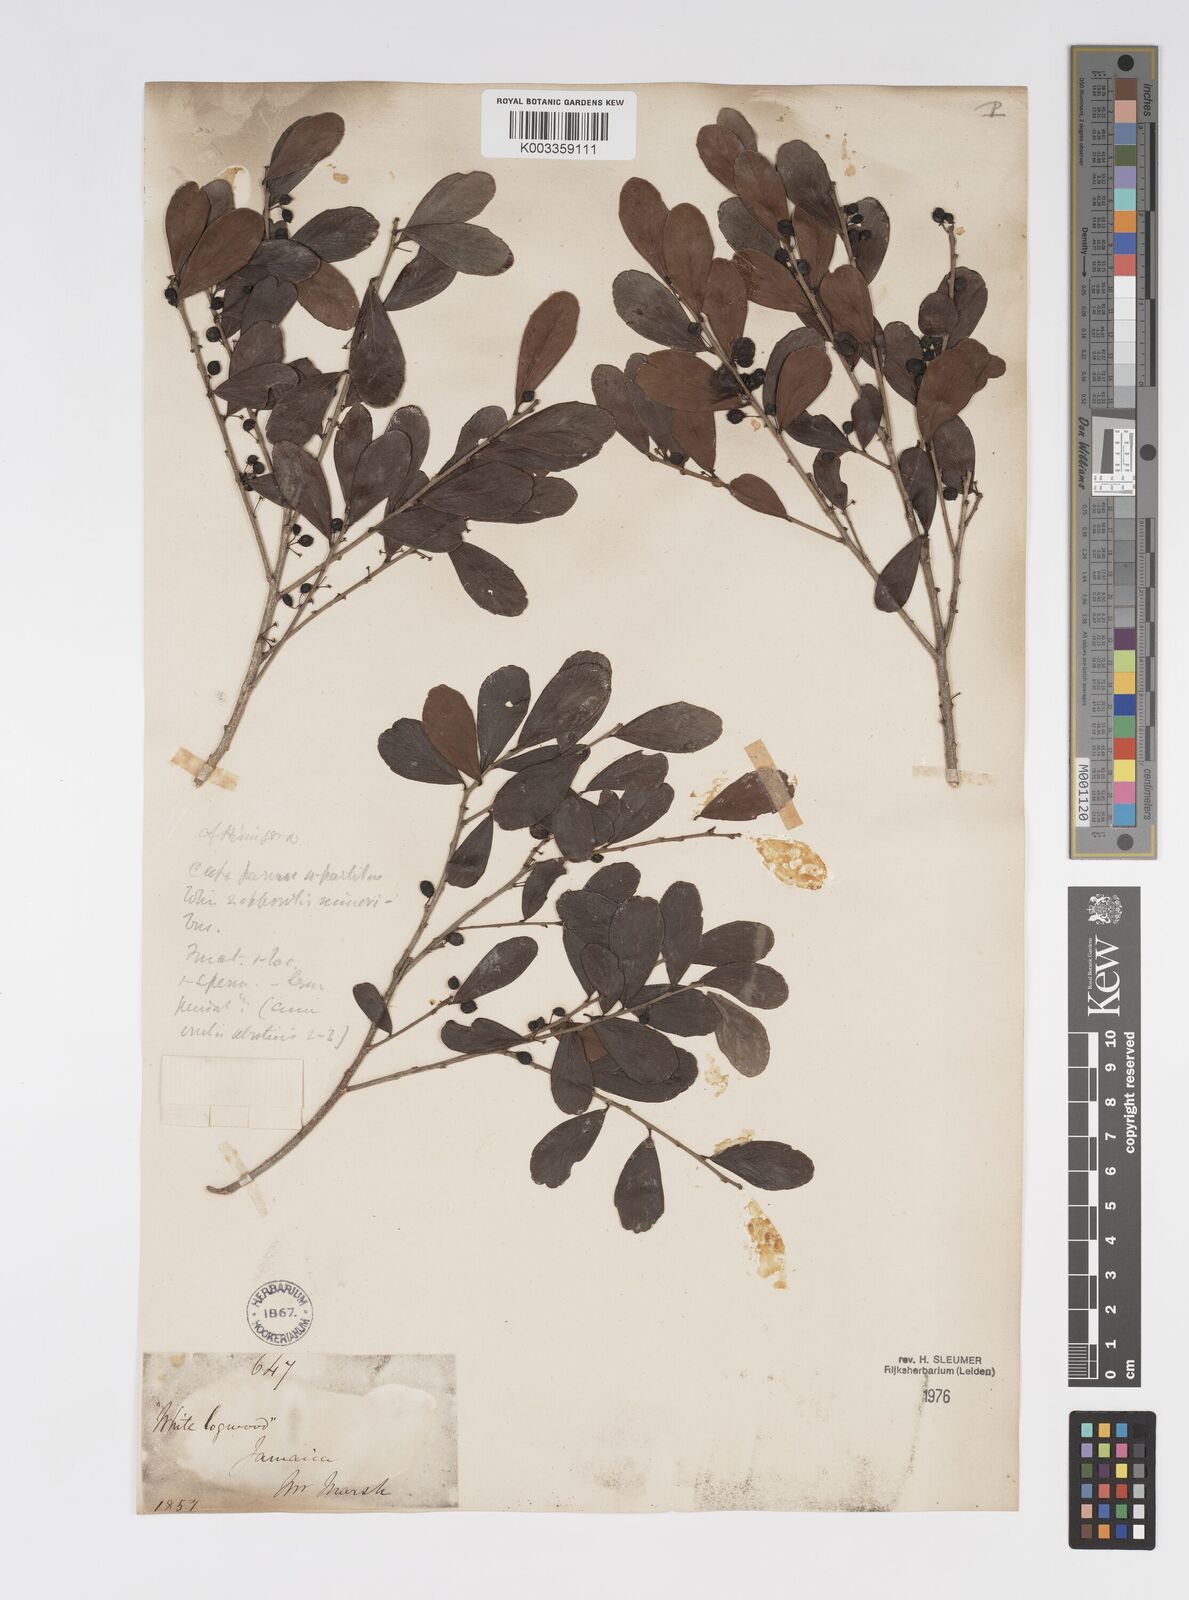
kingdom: Plantae
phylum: Tracheophyta
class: Magnoliopsida
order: Malpighiales
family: Salicaceae
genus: Xylosma
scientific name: Xylosma schaefferioides
